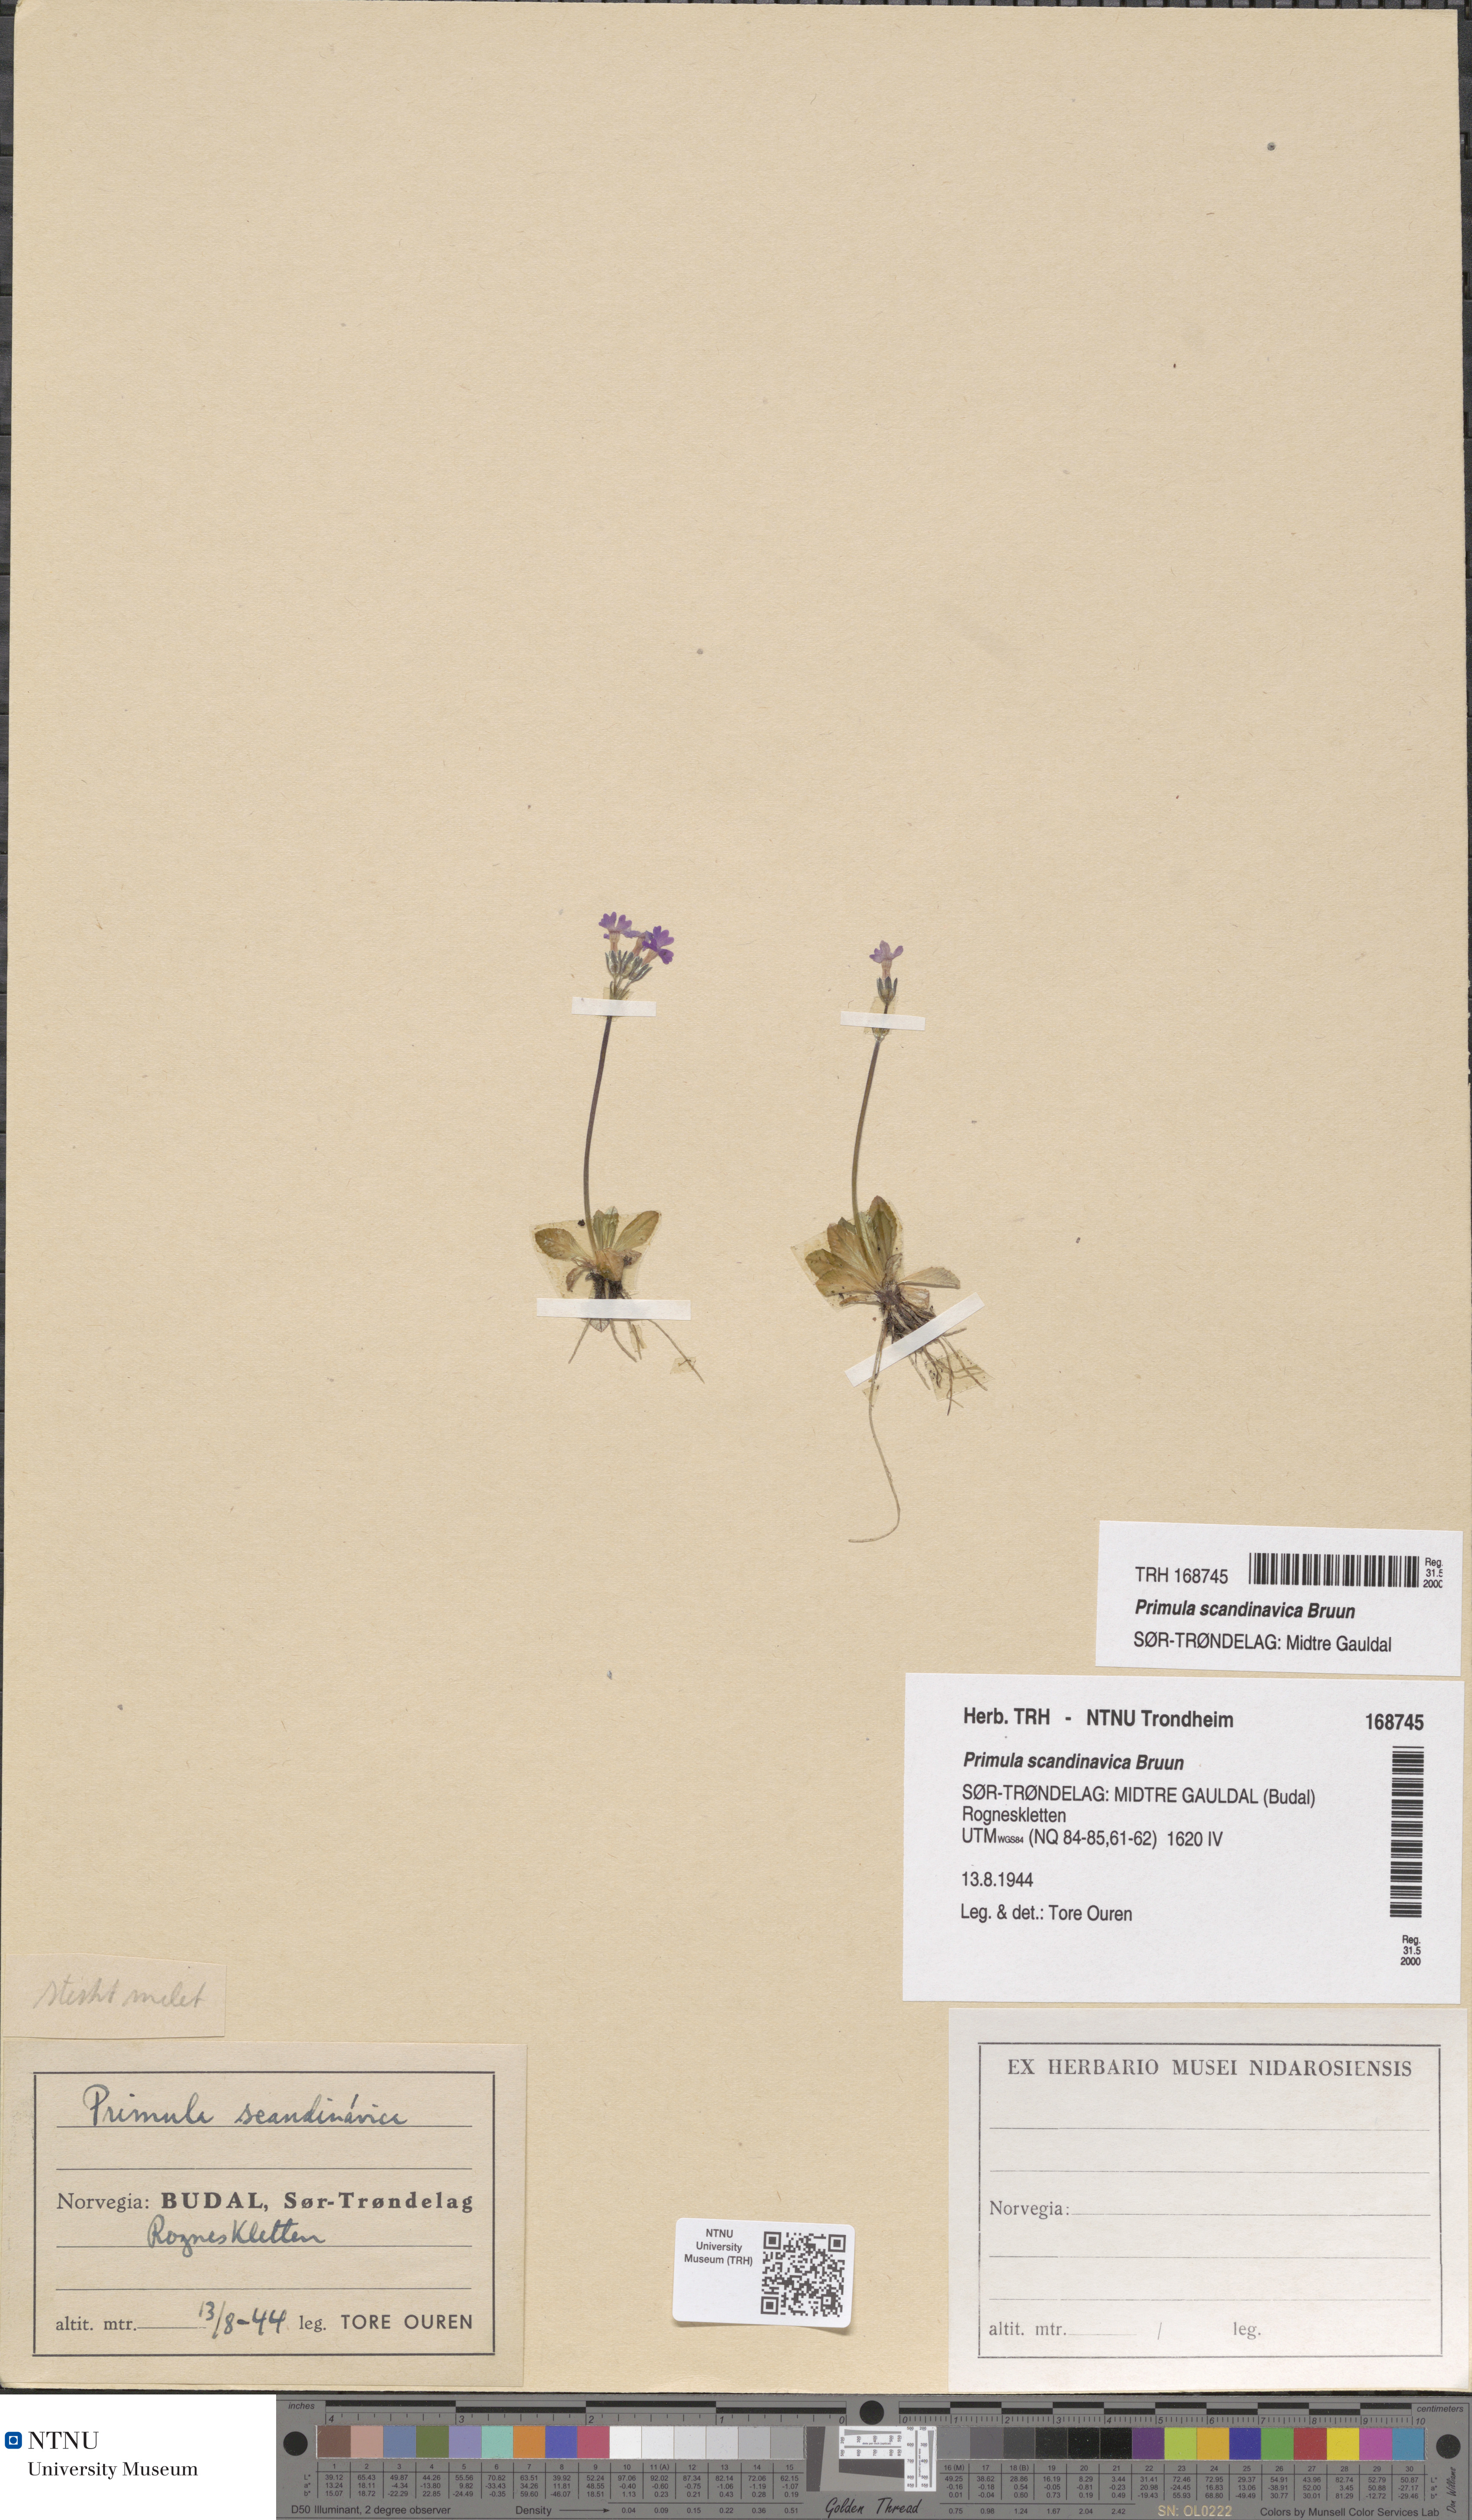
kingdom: Plantae
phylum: Tracheophyta
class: Magnoliopsida
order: Ericales
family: Primulaceae
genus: Primula
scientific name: Primula scandinavica
